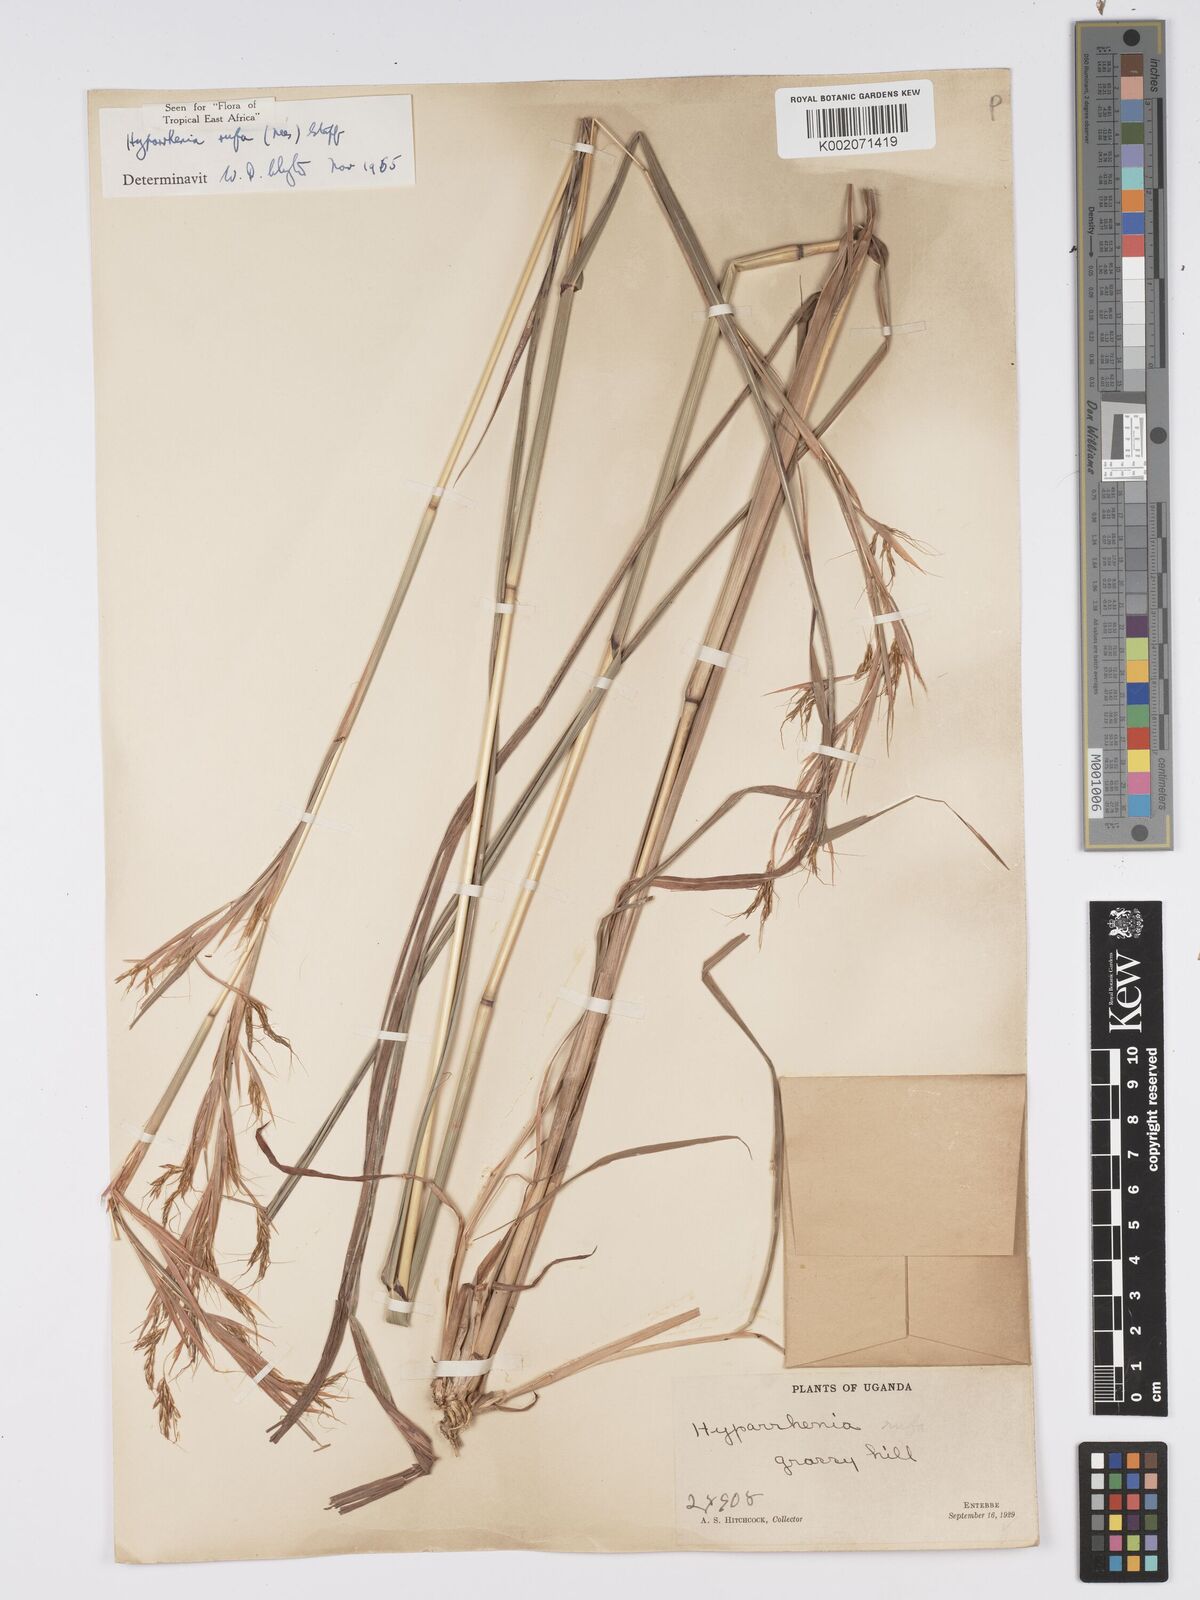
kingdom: Plantae
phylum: Tracheophyta
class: Liliopsida
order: Poales
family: Poaceae
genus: Hyparrhenia
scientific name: Hyparrhenia rufa
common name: Jaraguagrass
